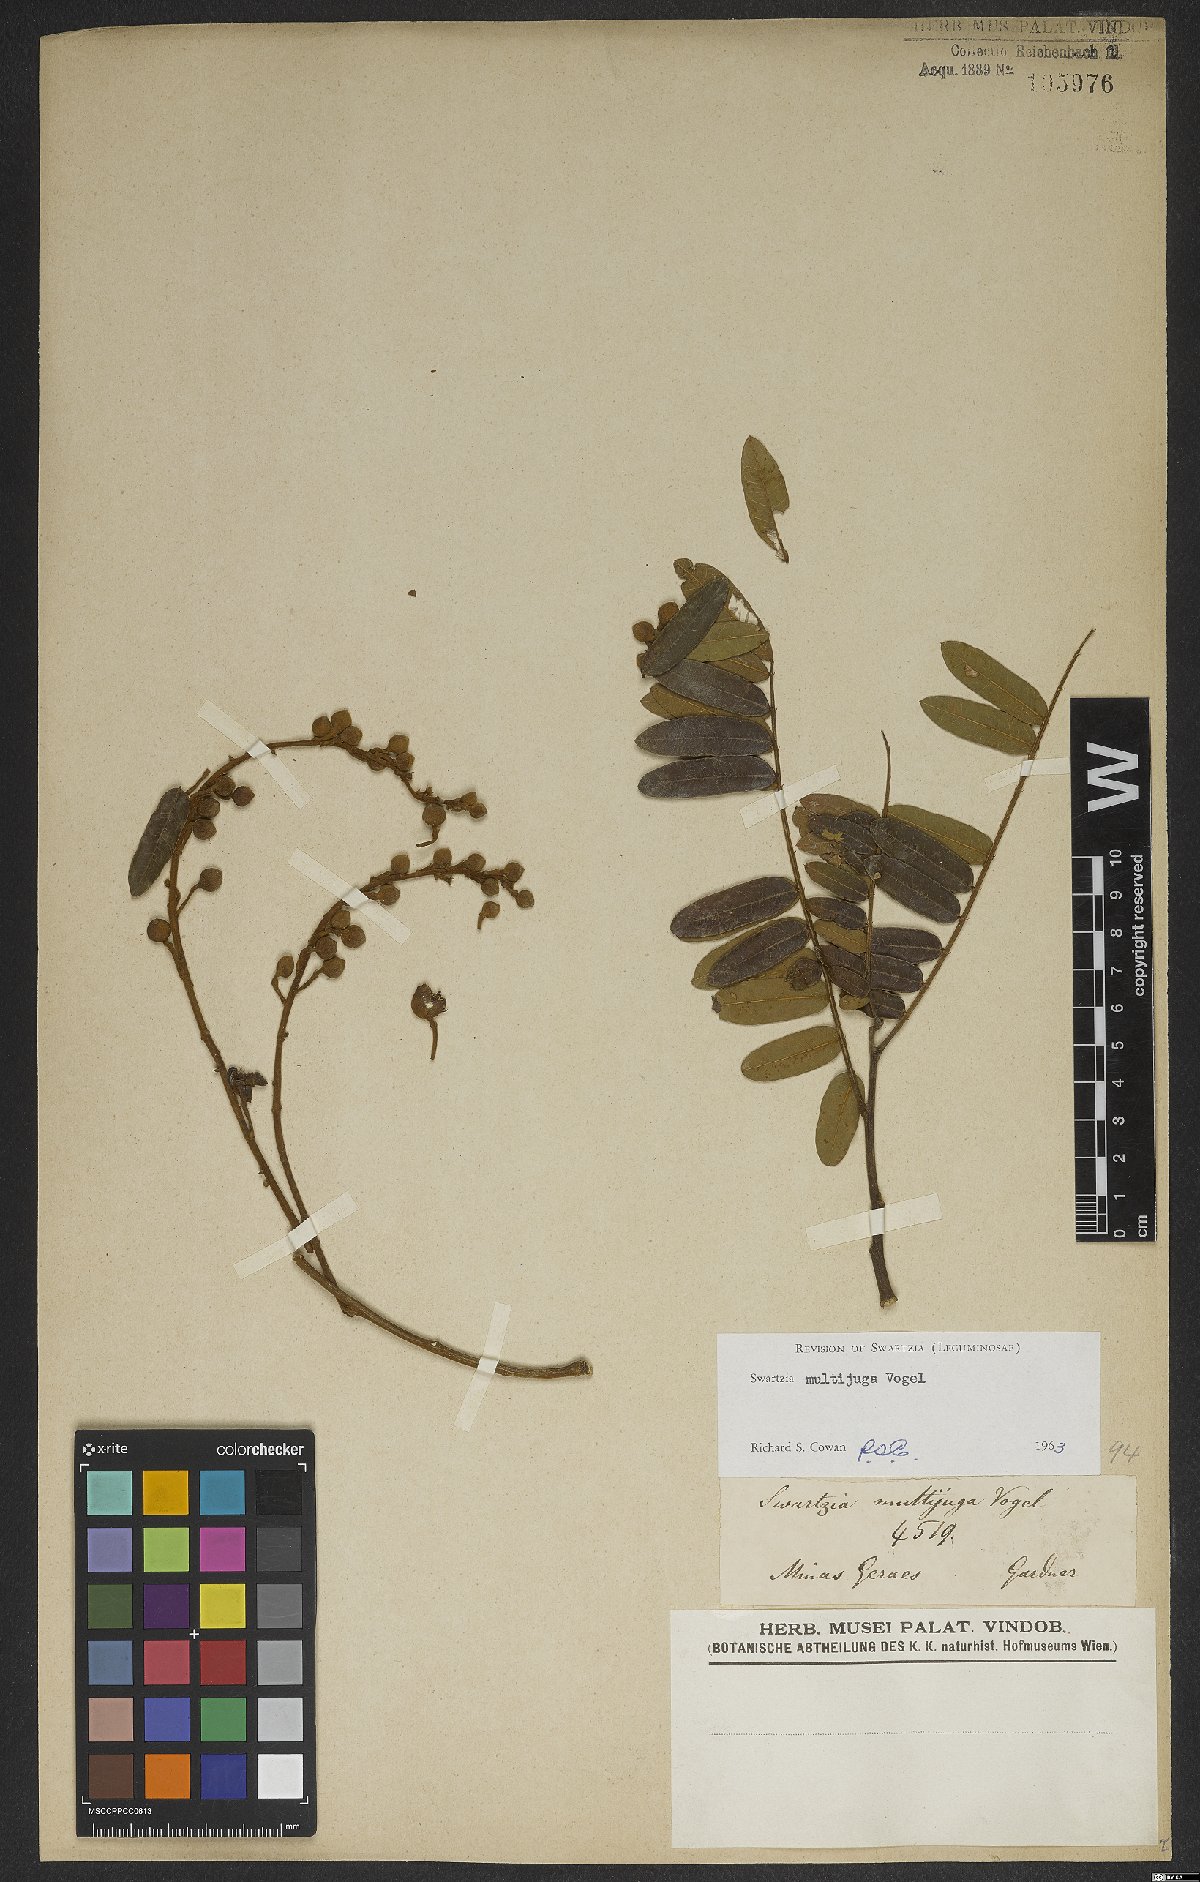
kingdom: Plantae
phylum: Tracheophyta
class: Magnoliopsida
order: Fabales
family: Fabaceae
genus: Swartzia
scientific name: Swartzia multijuga
